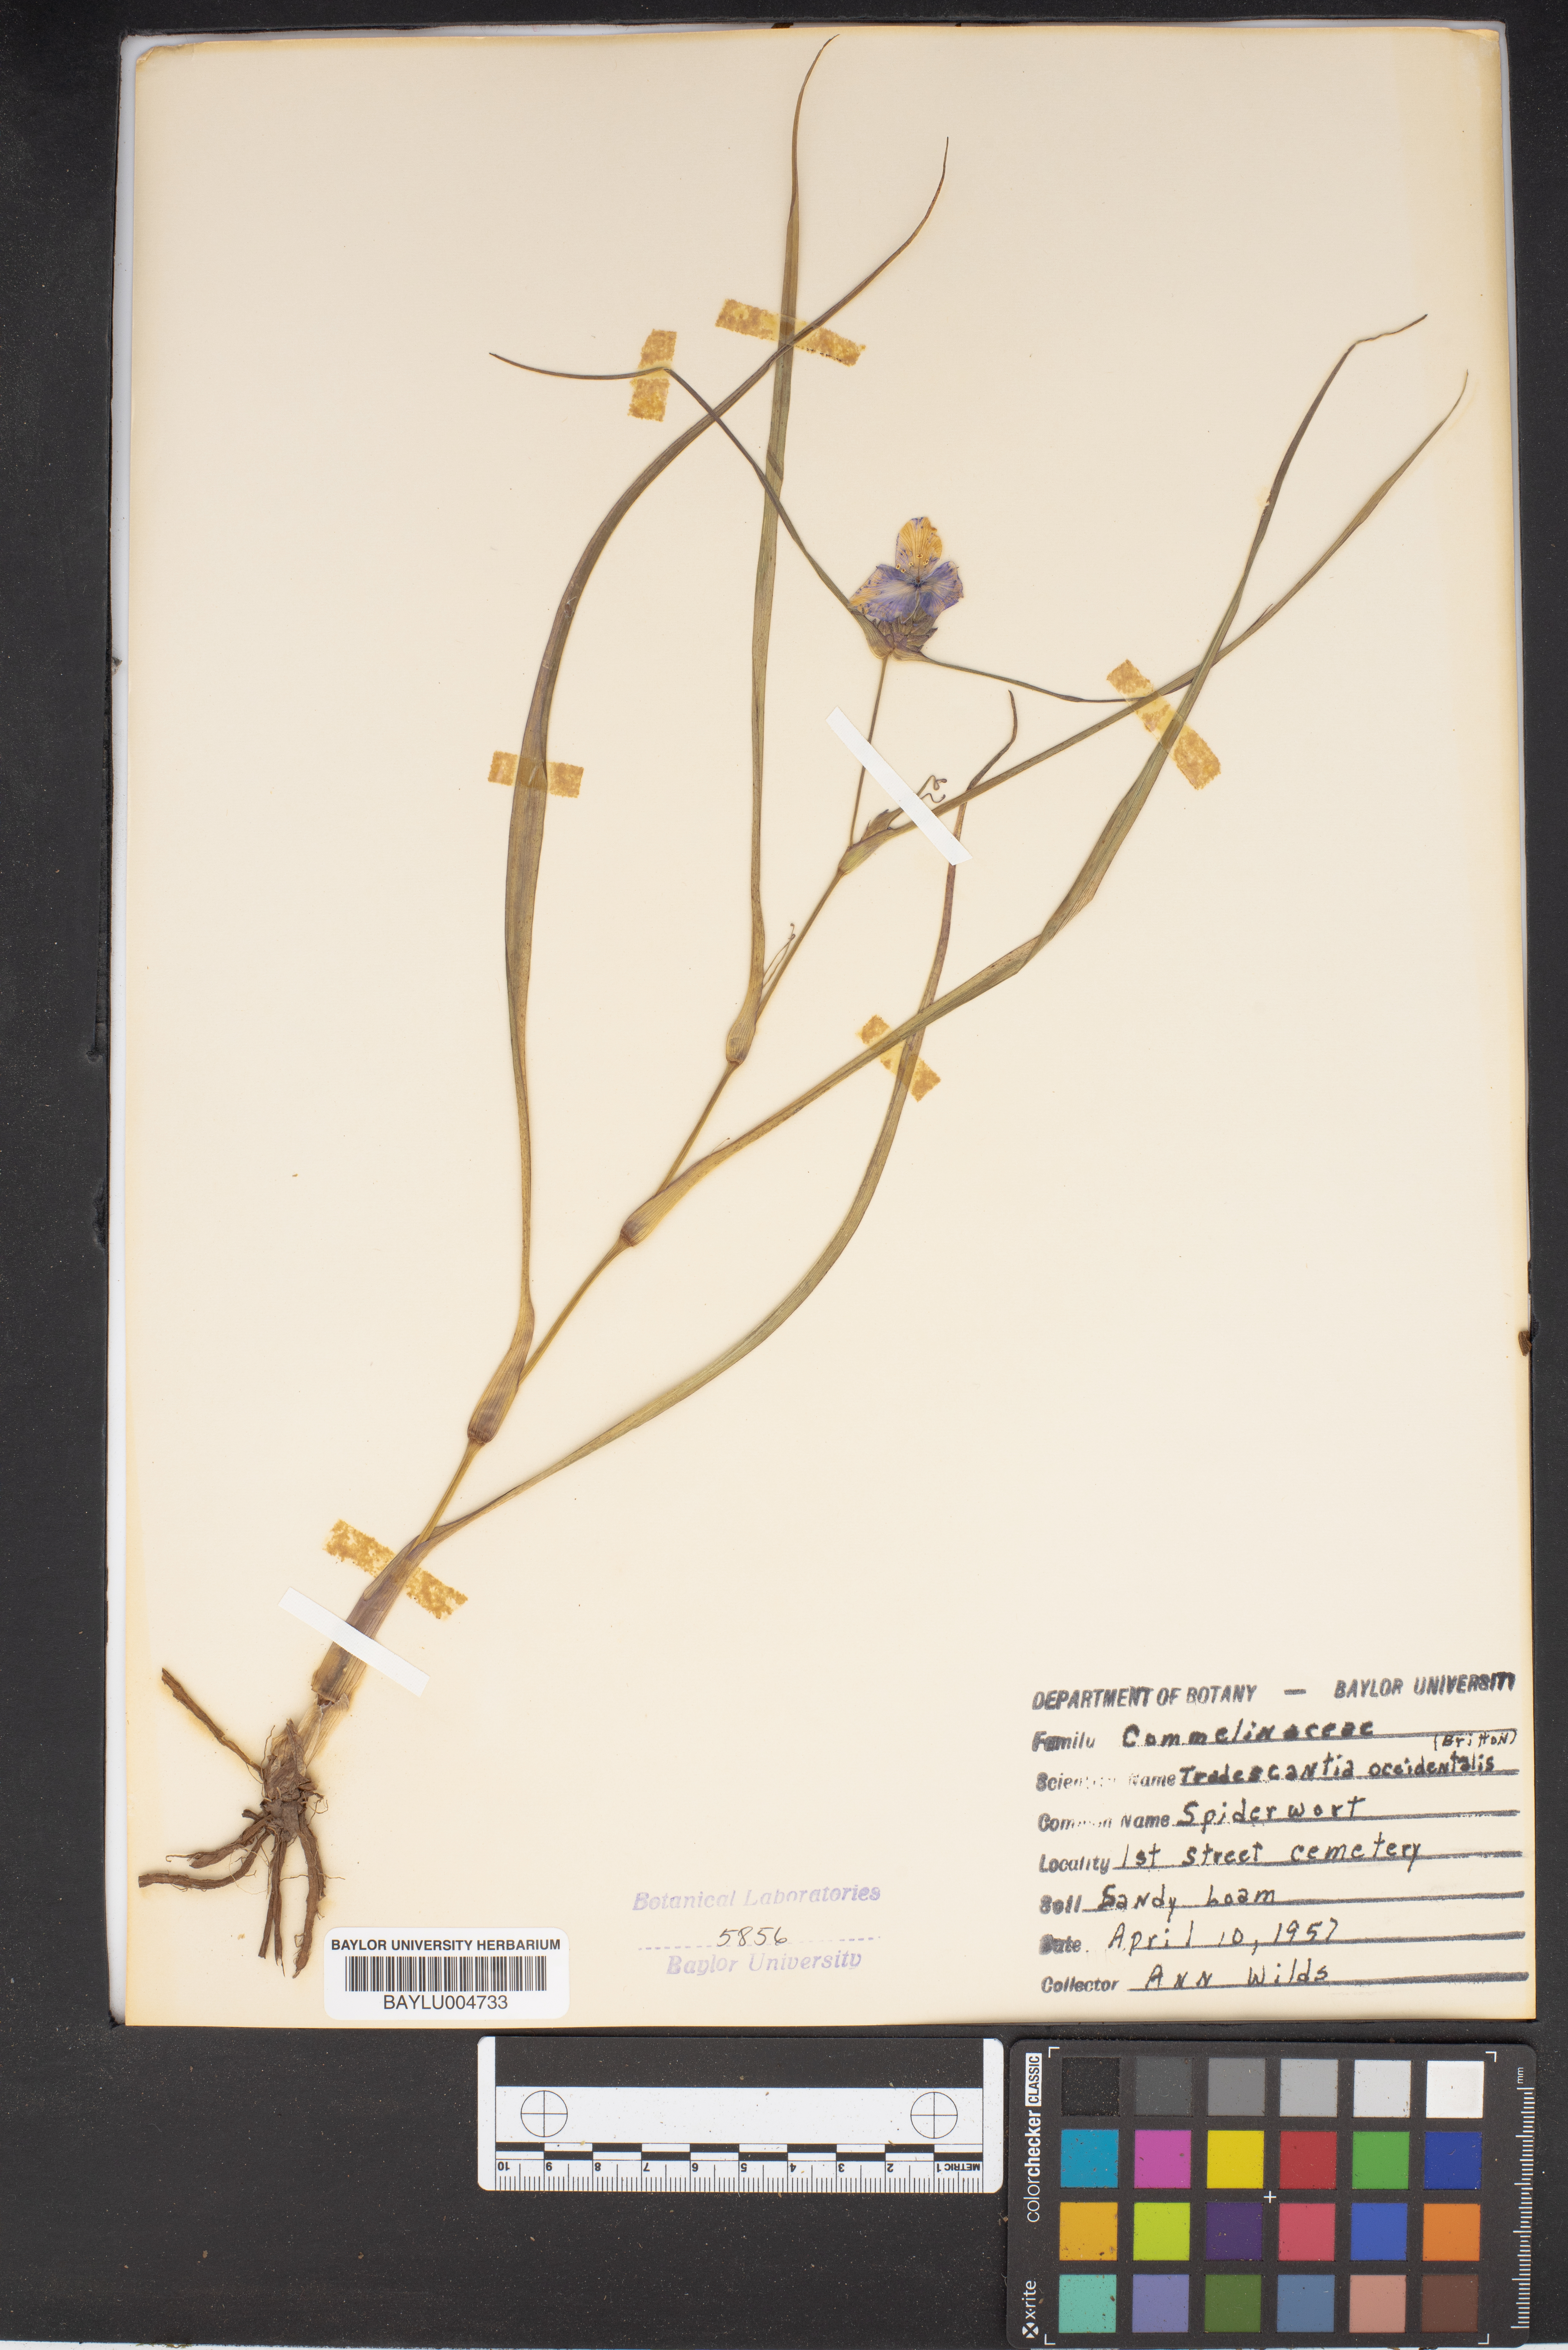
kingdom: Plantae
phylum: Tracheophyta
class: Liliopsida
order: Commelinales
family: Commelinaceae
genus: Tradescantia
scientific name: Tradescantia occidentalis
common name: Prairie spiderwort
